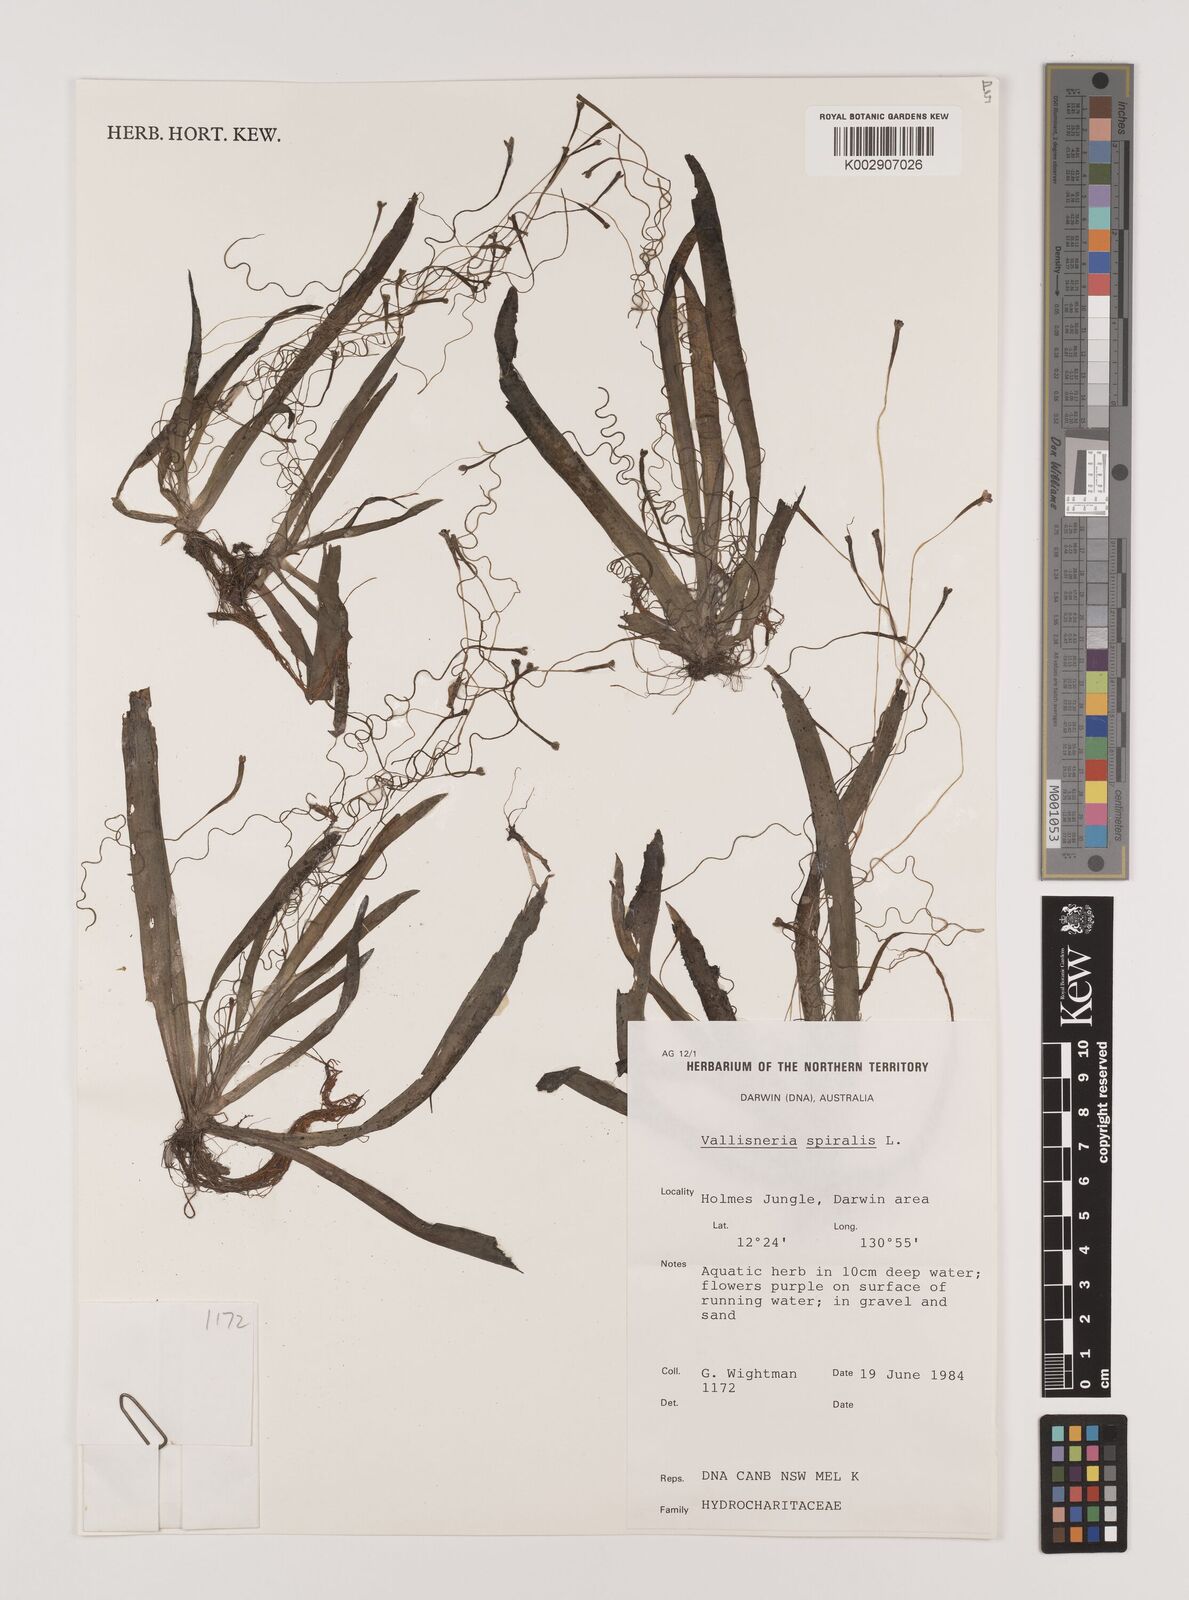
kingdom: Plantae
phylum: Tracheophyta
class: Liliopsida
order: Alismatales
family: Hydrocharitaceae
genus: Vallisneria
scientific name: Vallisneria spiralis
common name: Tapegrass
